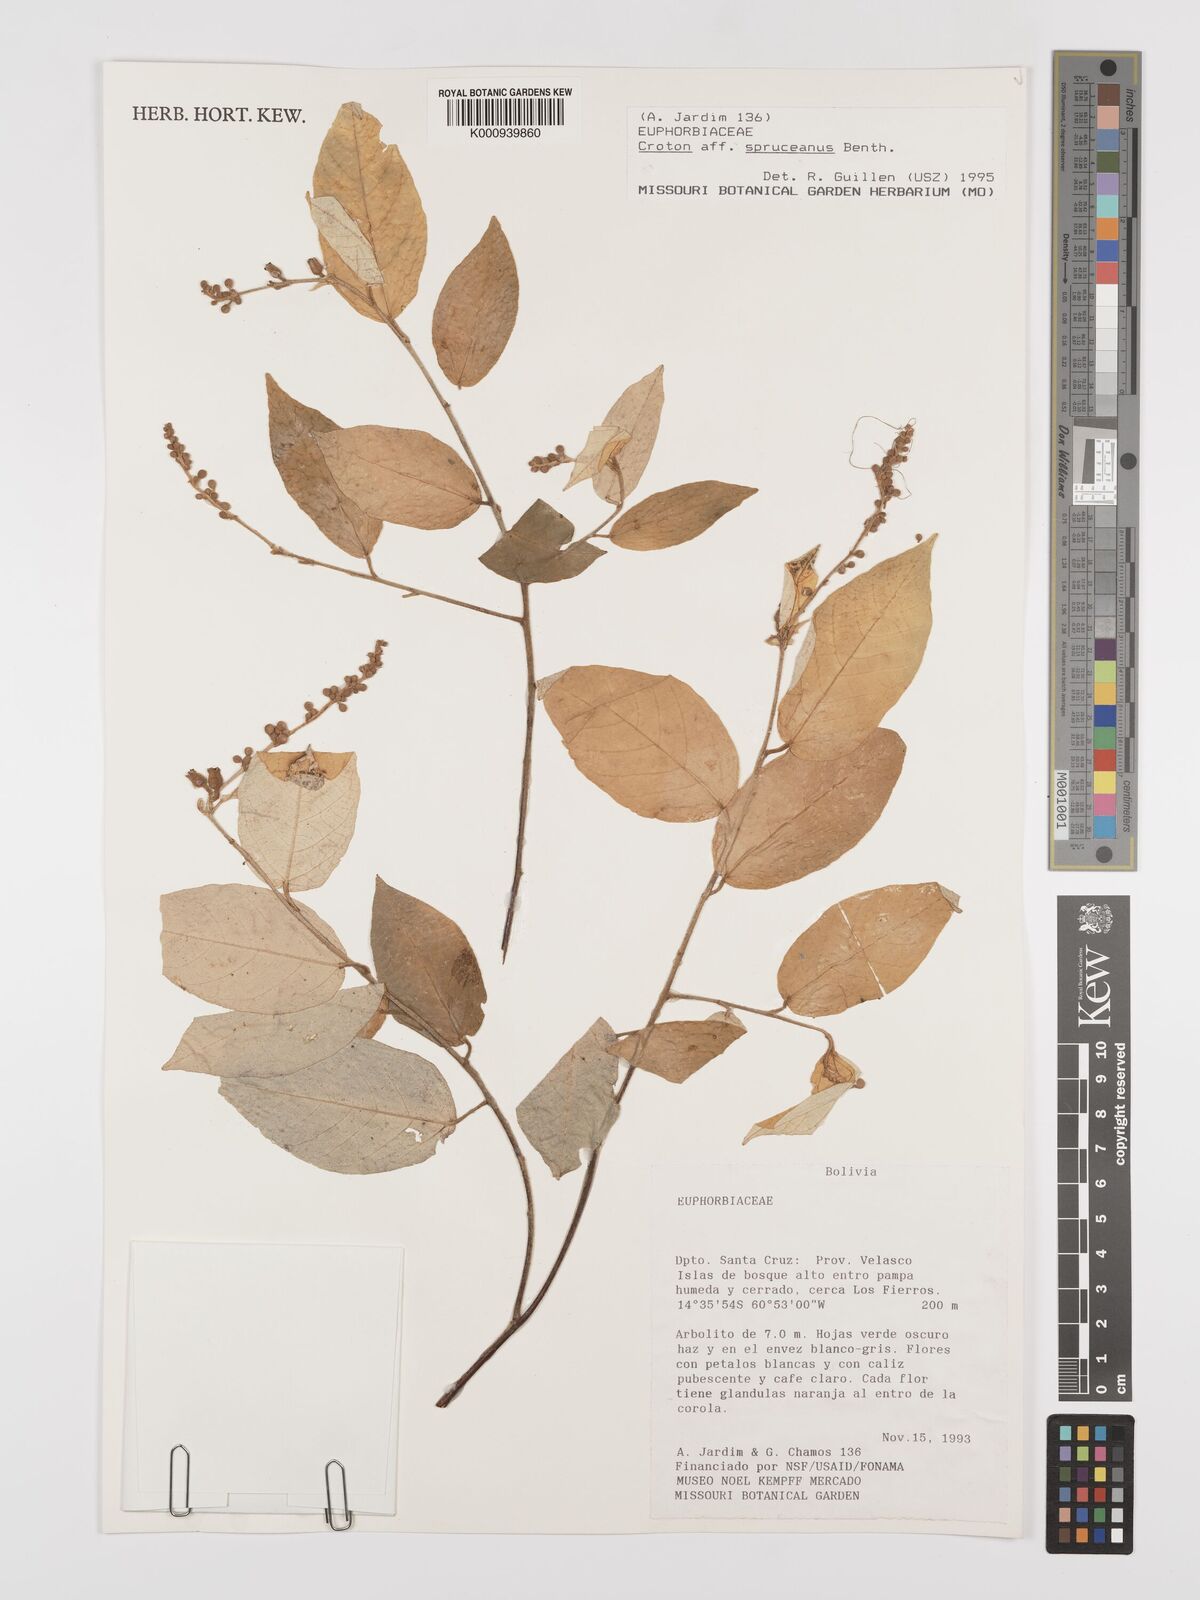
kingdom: Plantae
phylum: Tracheophyta
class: Magnoliopsida
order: Malpighiales
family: Euphorbiaceae
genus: Croton
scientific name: Croton spruceanus
